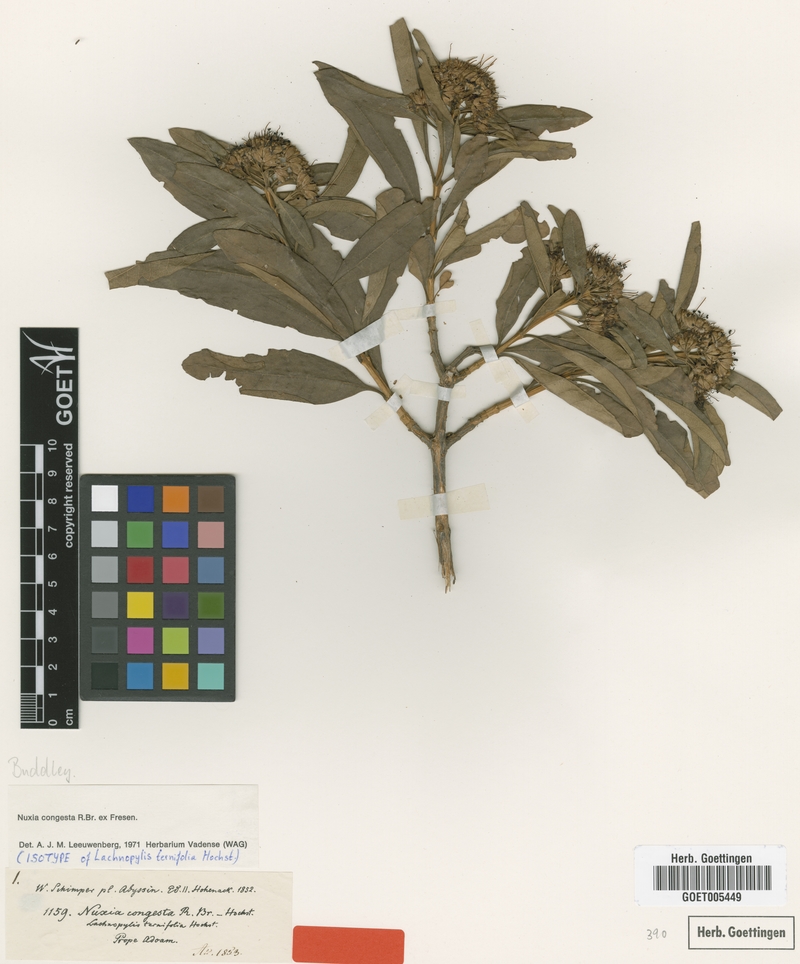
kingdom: Plantae
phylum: Tracheophyta
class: Magnoliopsida
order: Lamiales
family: Stilbaceae
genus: Nuxia
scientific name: Nuxia congesta
